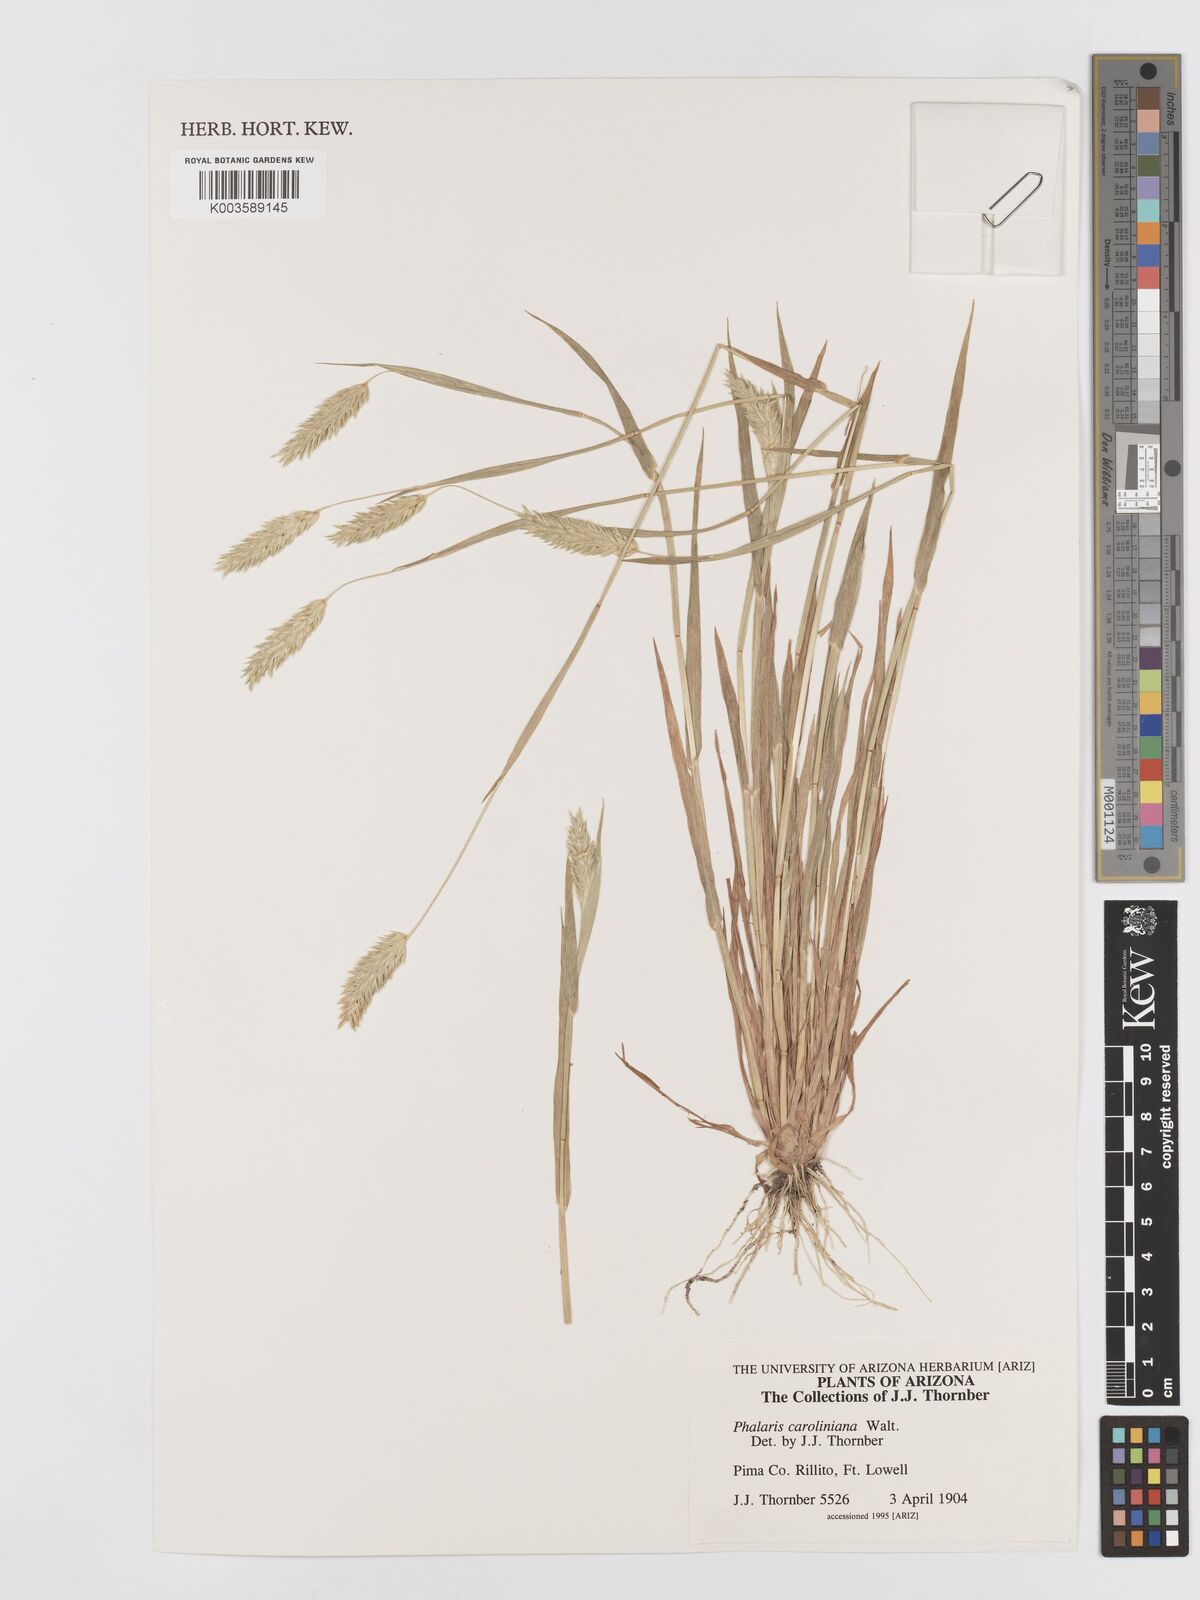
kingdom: Plantae
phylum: Tracheophyta
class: Liliopsida
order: Poales
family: Poaceae
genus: Phalaris
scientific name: Phalaris caroliniana
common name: May grass
